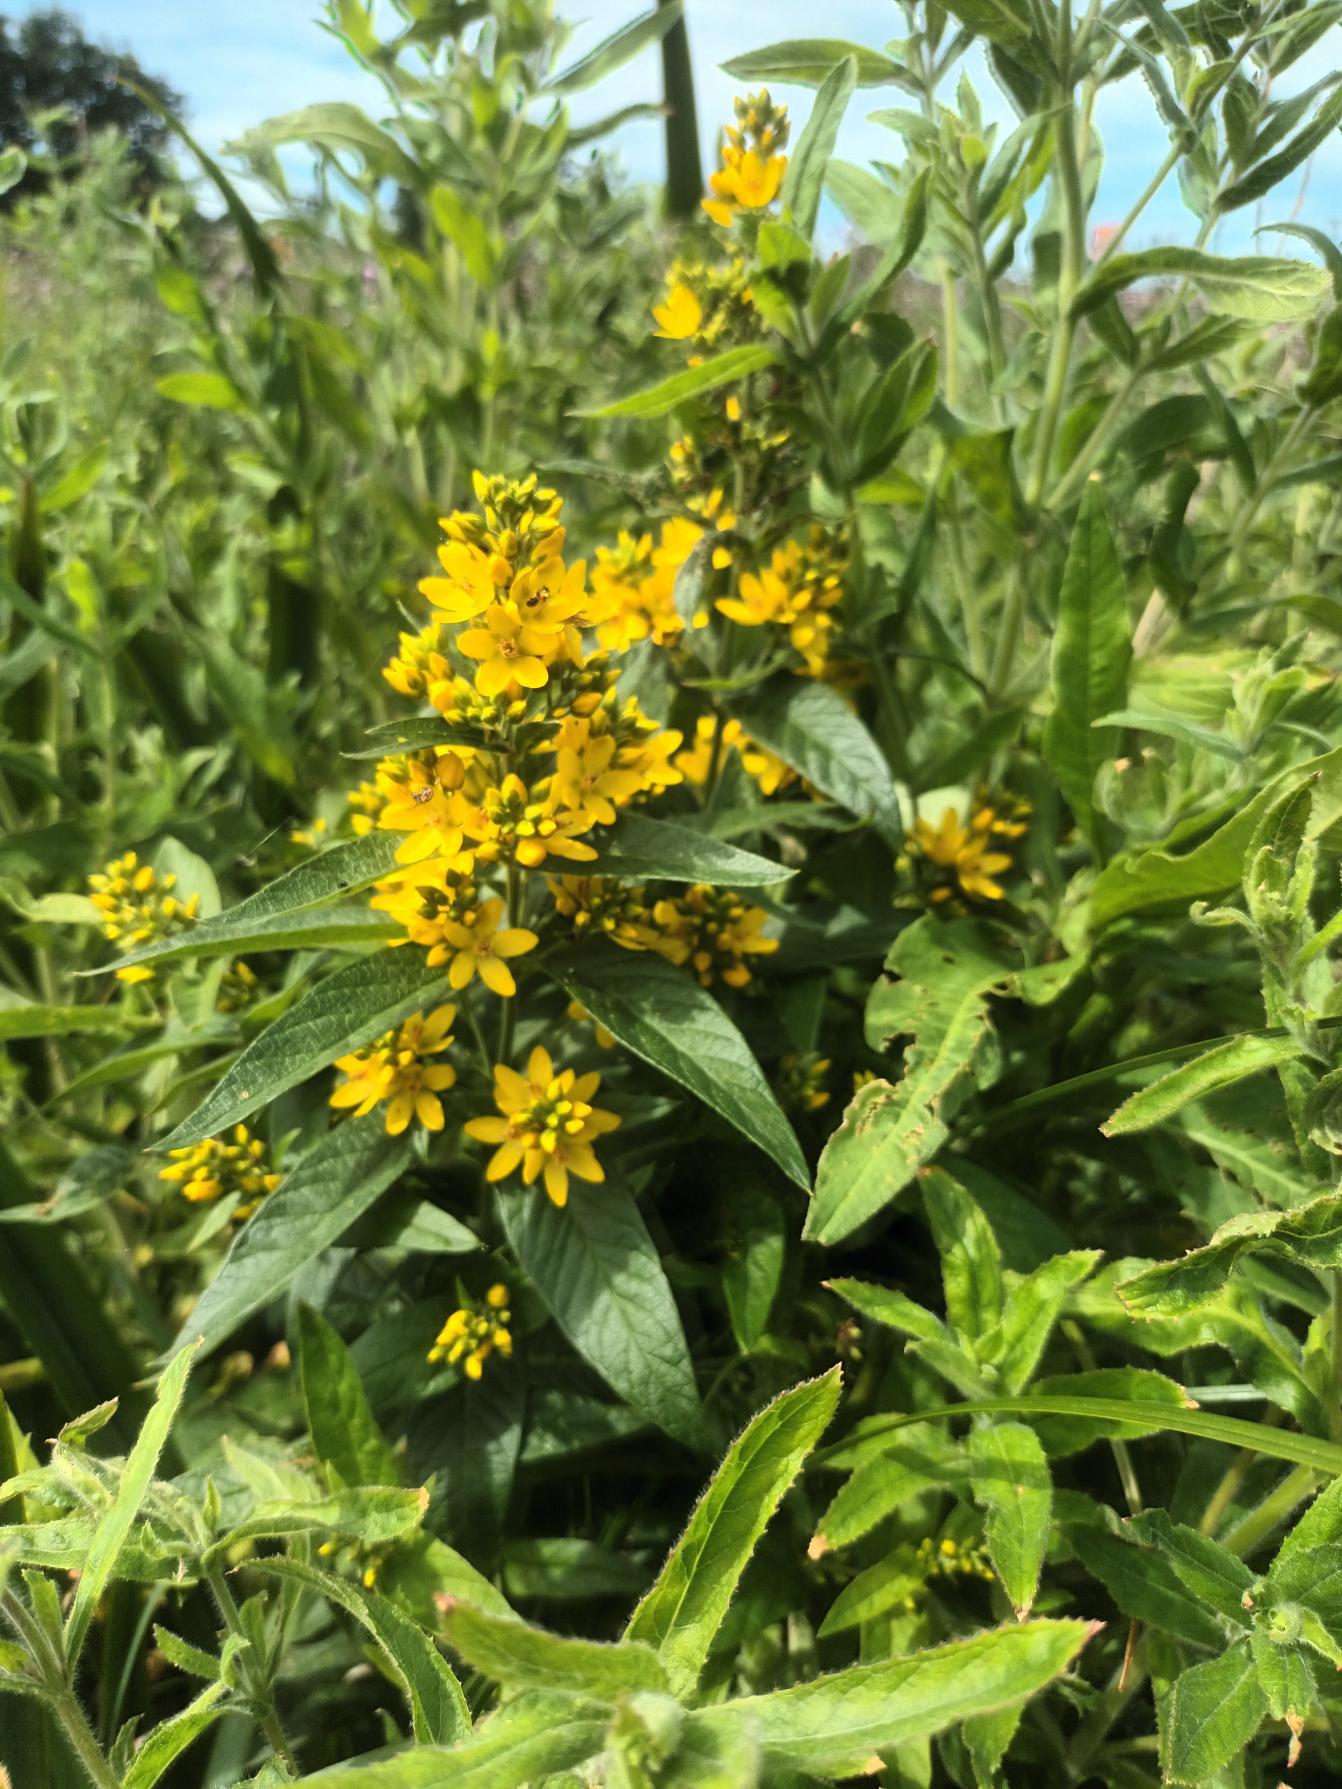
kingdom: Plantae
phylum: Tracheophyta
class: Magnoliopsida
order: Ericales
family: Primulaceae
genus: Lysimachia
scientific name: Lysimachia vulgaris
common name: Almindelig fredløs
